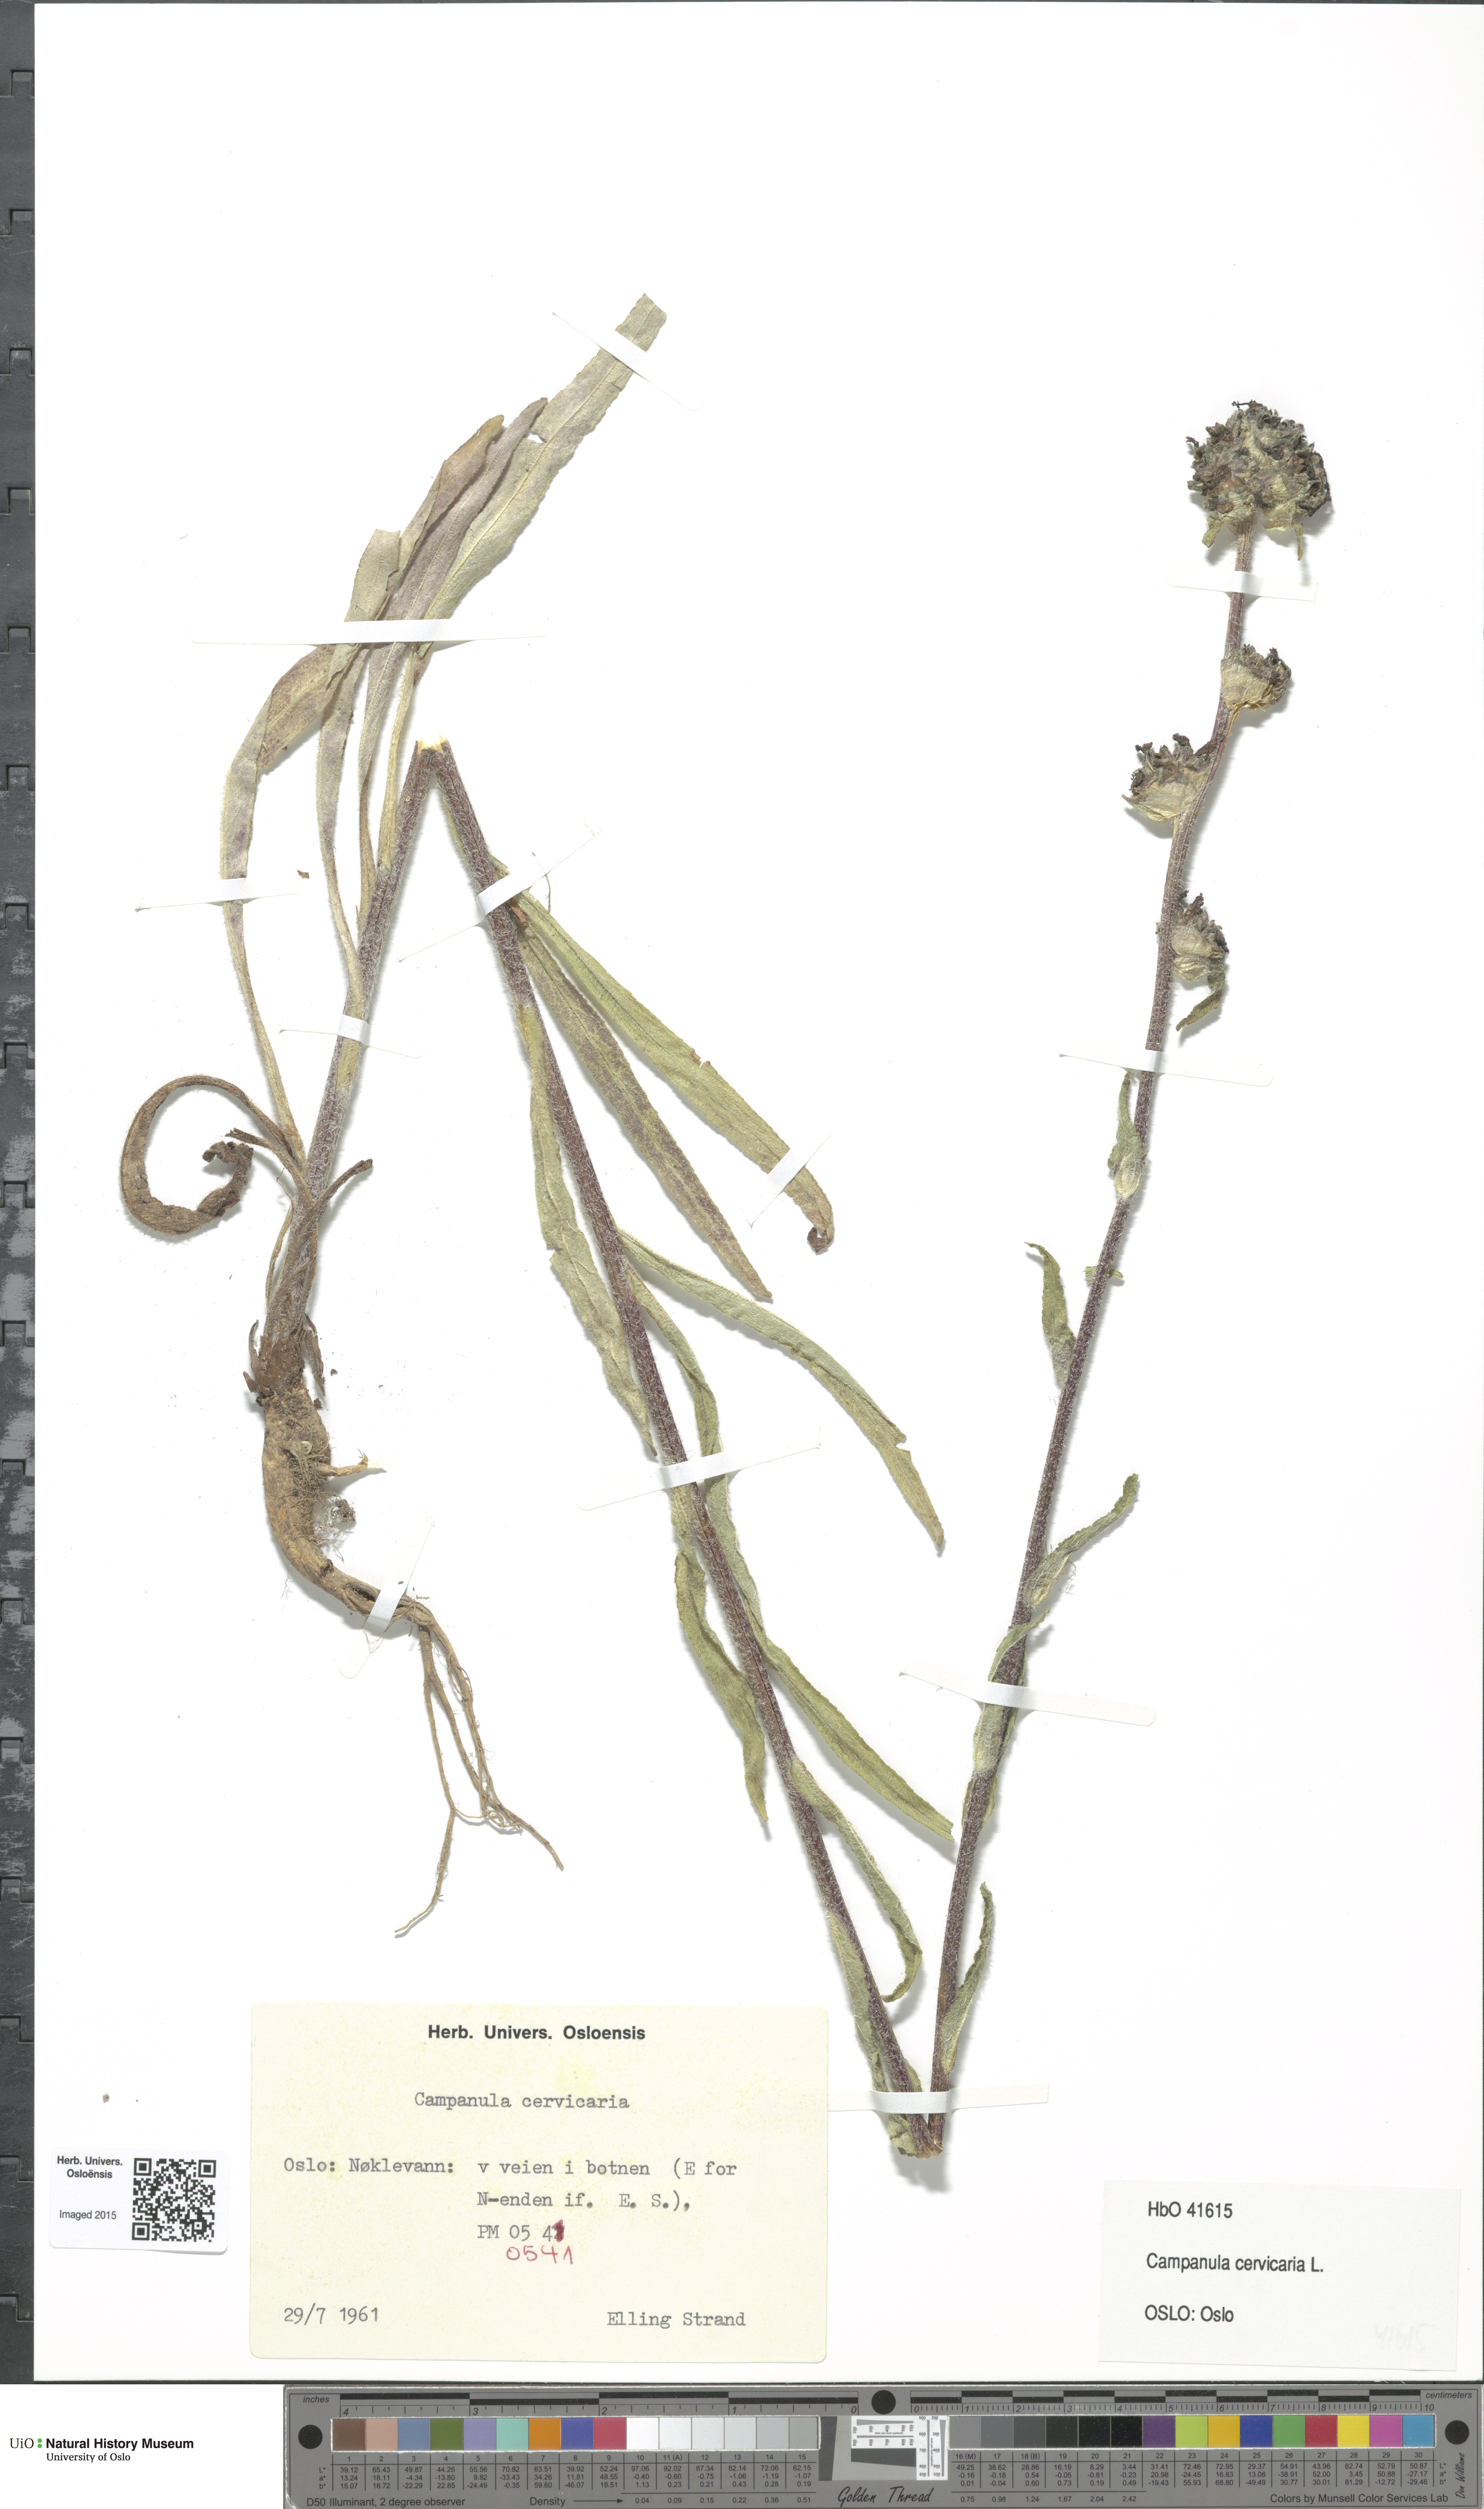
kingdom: Plantae
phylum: Tracheophyta
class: Magnoliopsida
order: Asterales
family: Campanulaceae
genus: Campanula
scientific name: Campanula cervicaria
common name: Bristly bellflower
